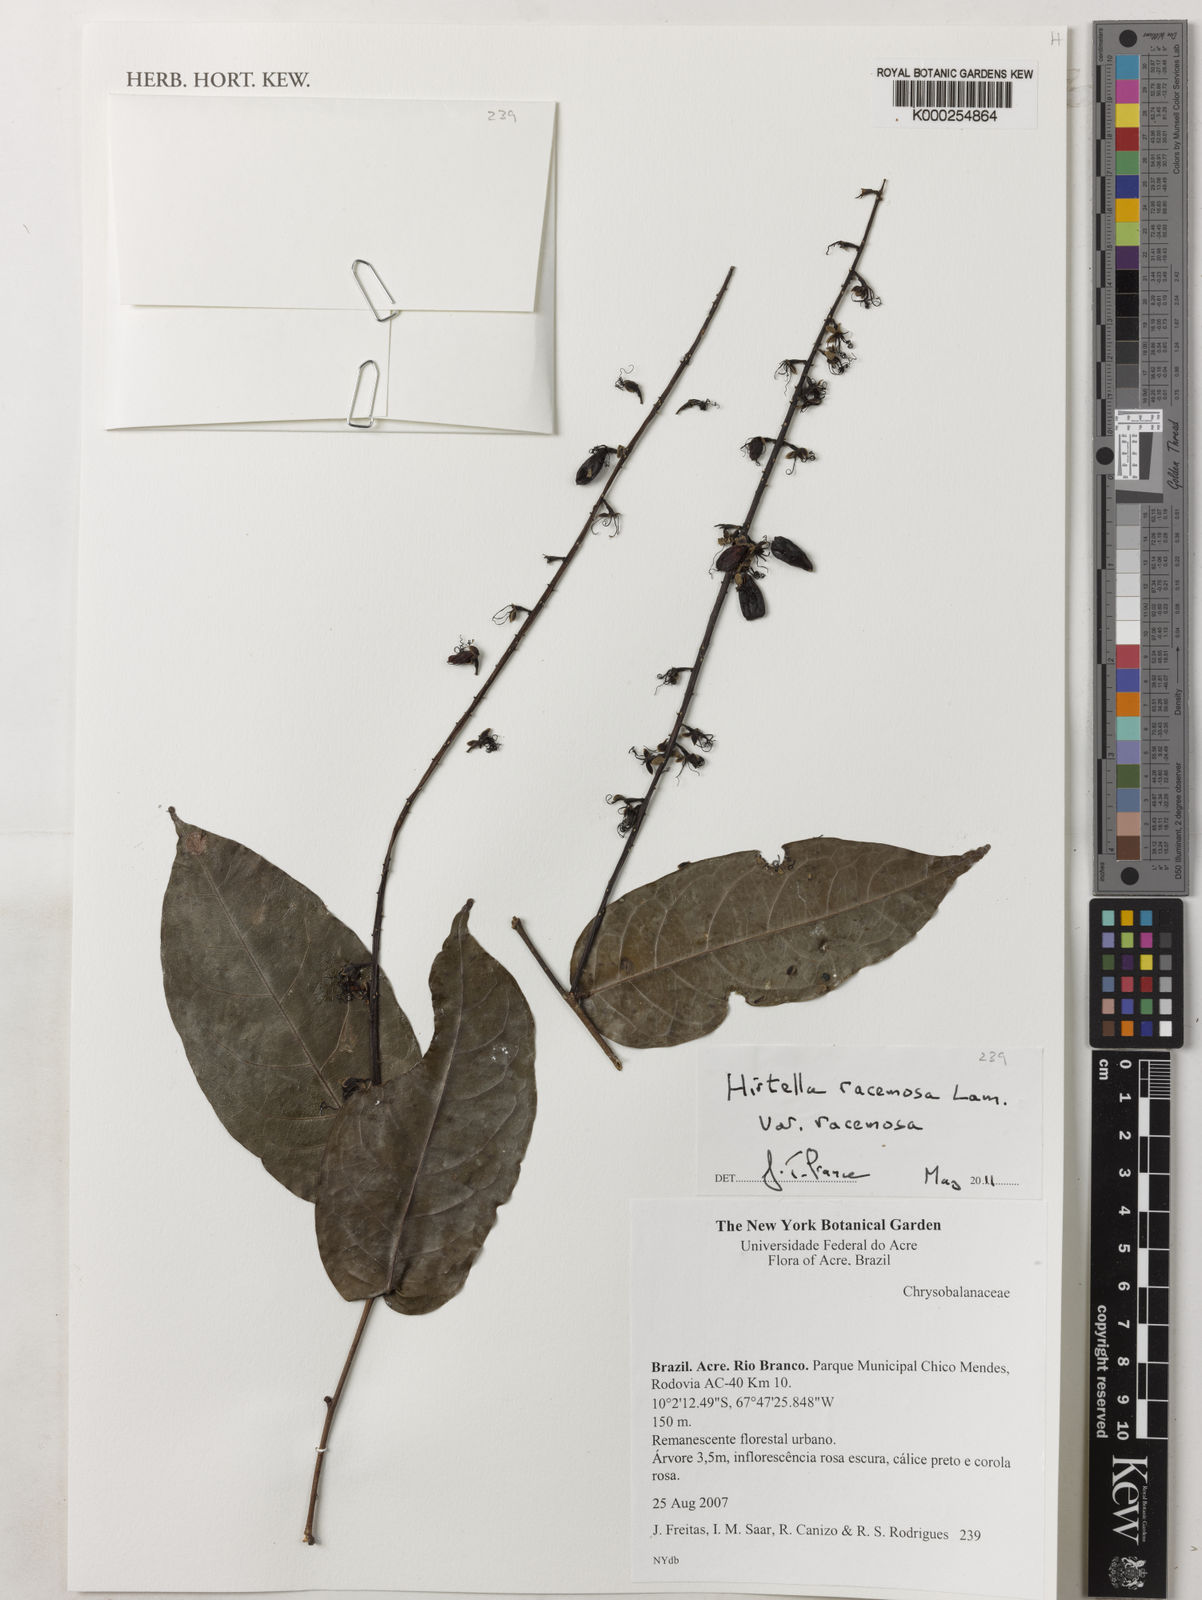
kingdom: Plantae
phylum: Tracheophyta
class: Magnoliopsida
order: Malpighiales
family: Chrysobalanaceae
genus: Hirtella
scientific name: Hirtella racemosa
